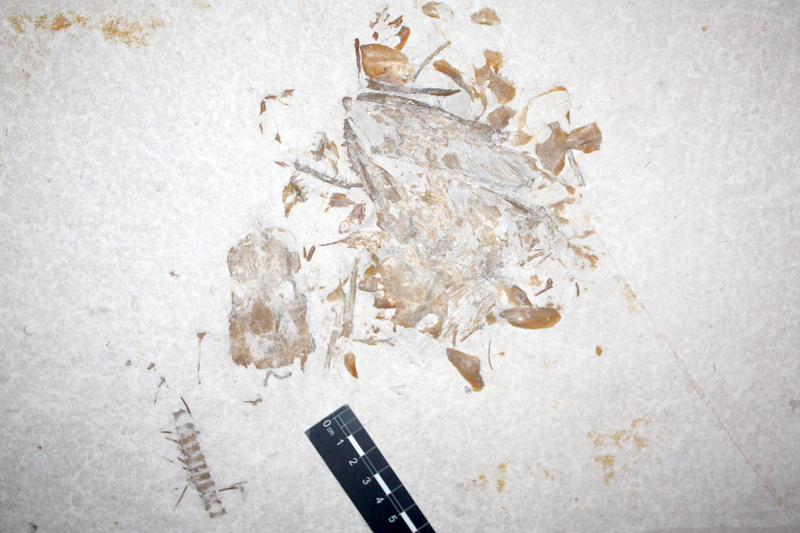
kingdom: Animalia
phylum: Chordata
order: Amiiformes
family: Caturidae
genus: Caturus
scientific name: Caturus
